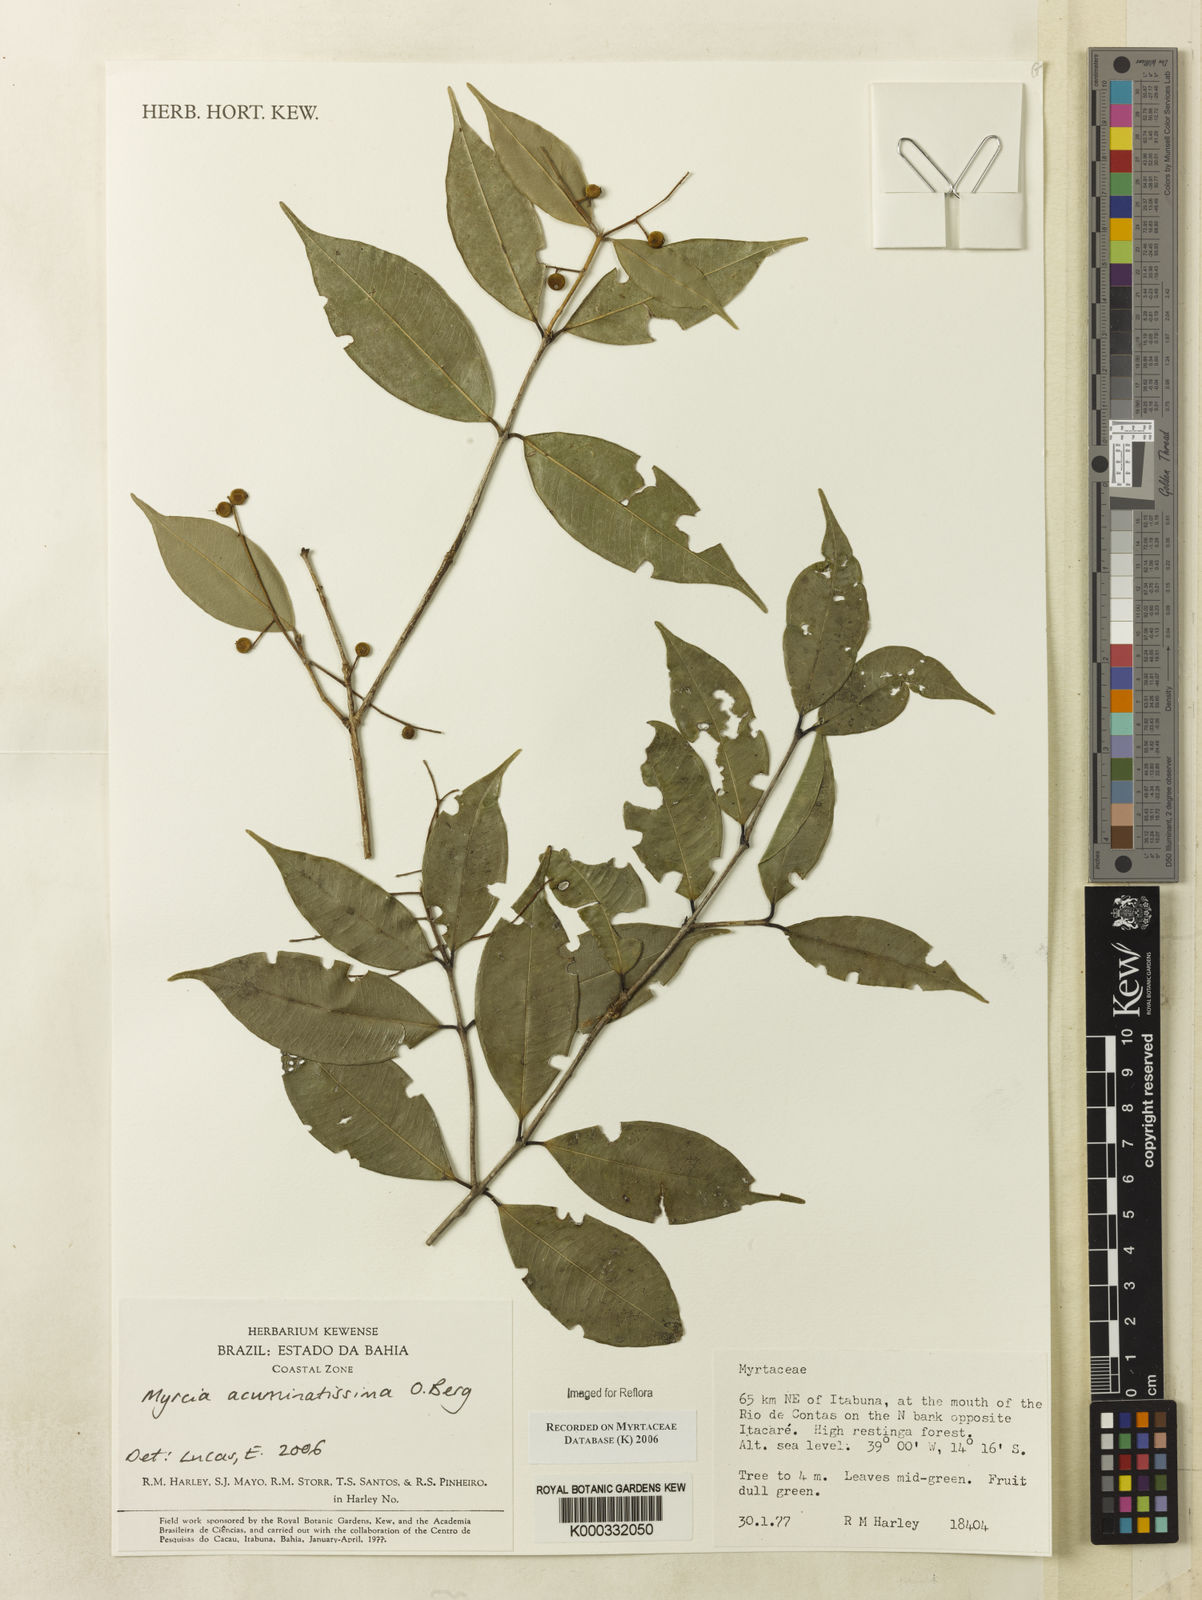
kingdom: Plantae
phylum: Tracheophyta
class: Magnoliopsida
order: Myrtales
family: Myrtaceae
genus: Myrcia
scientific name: Myrcia racemosa
